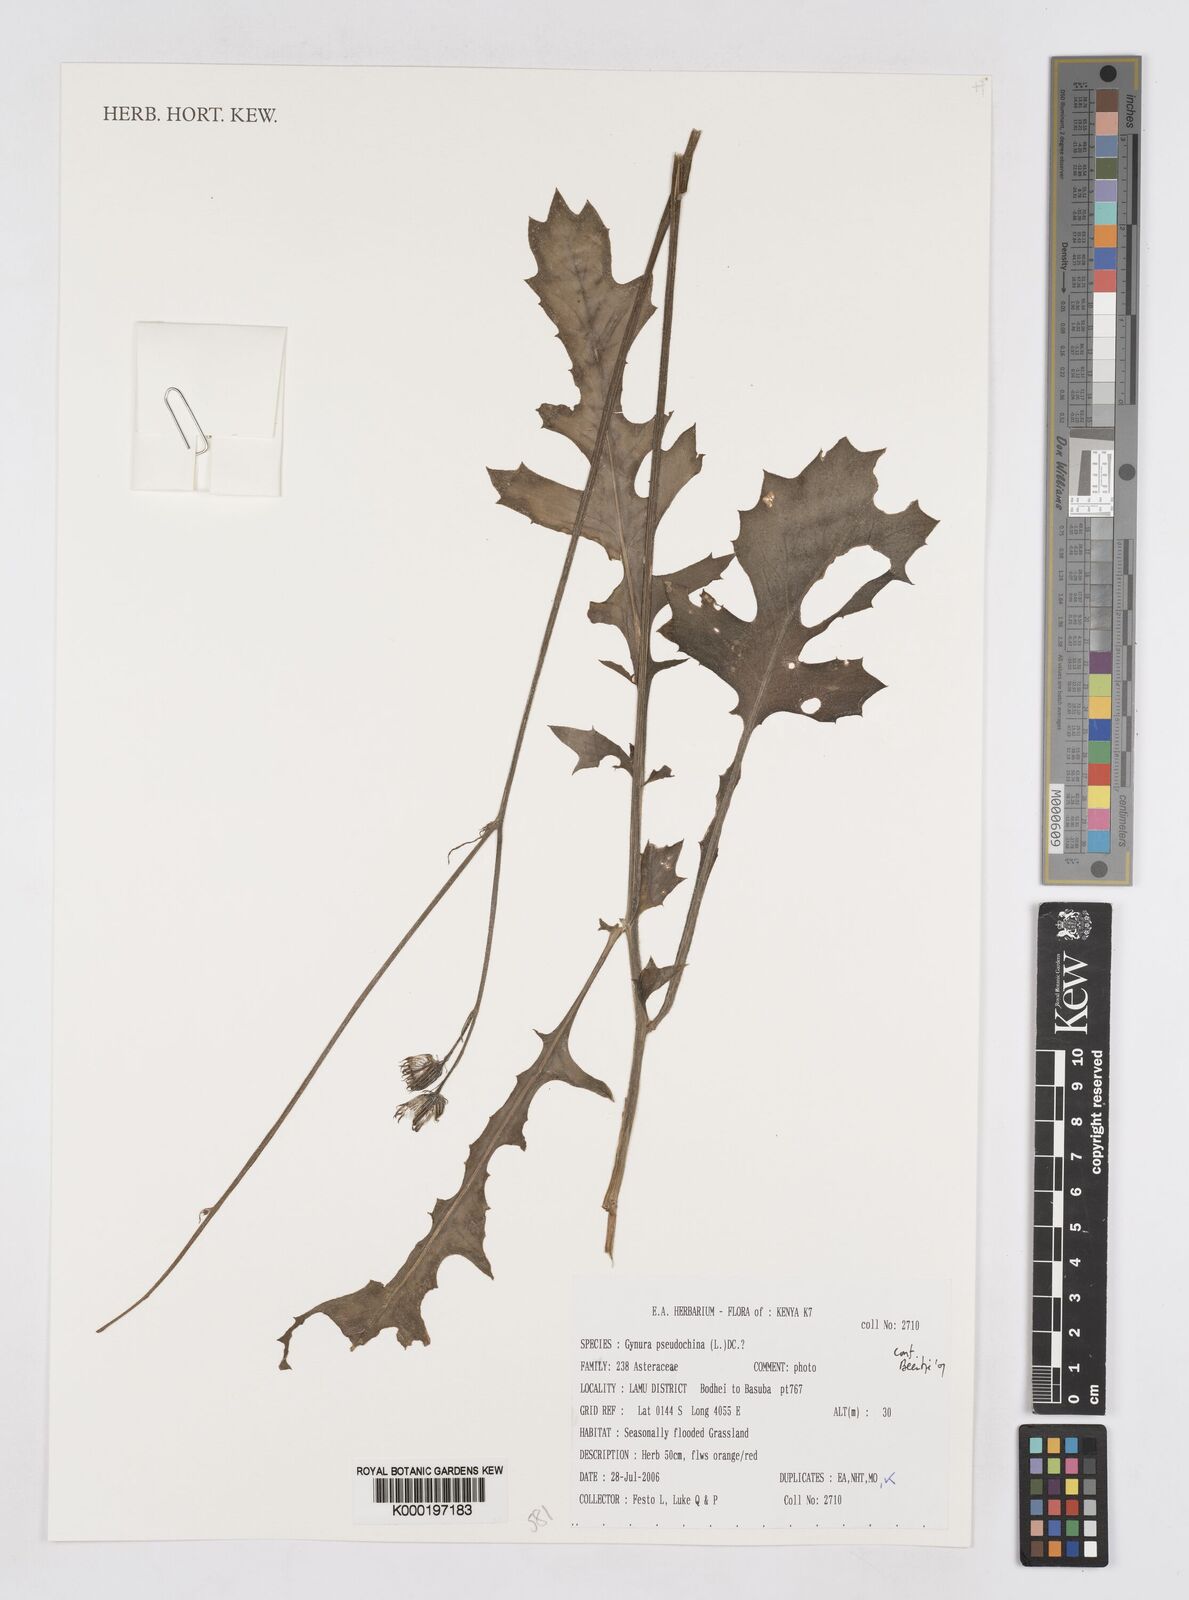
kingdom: Plantae
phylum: Tracheophyta
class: Magnoliopsida
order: Asterales
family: Asteraceae
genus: Gynura
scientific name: Gynura pseudochina
